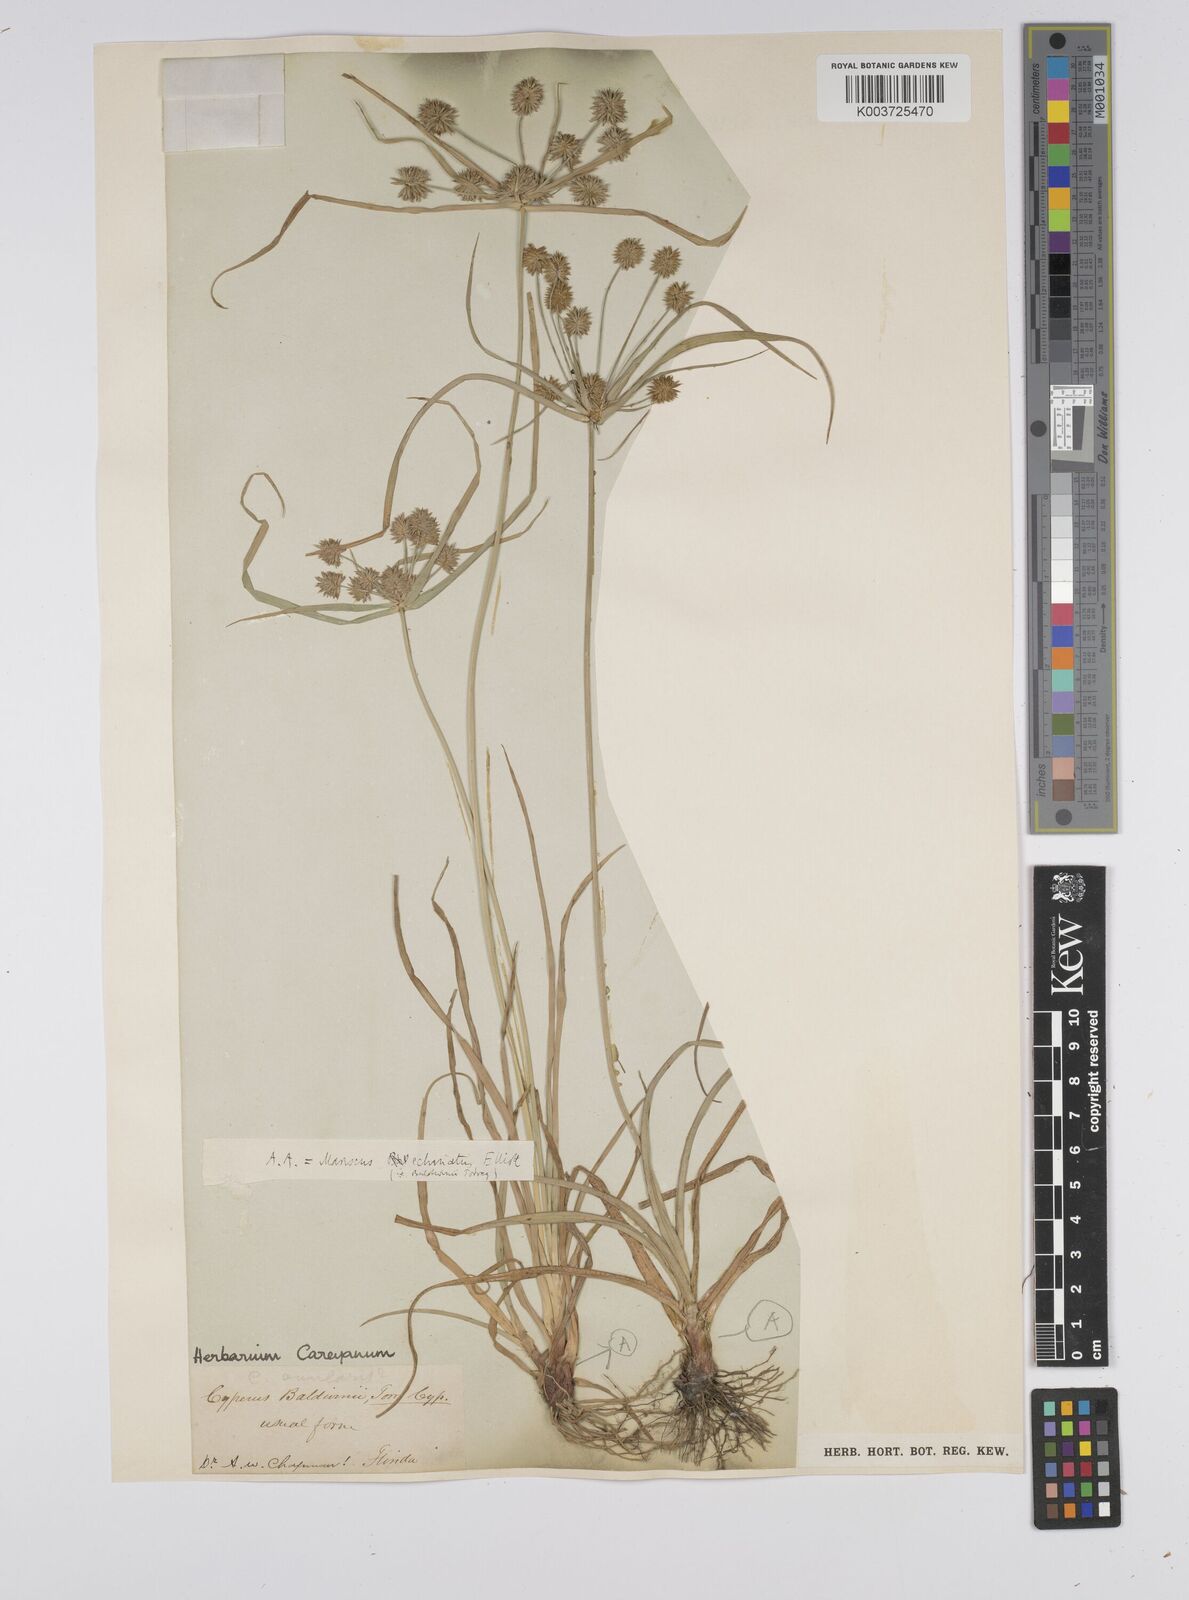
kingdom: Plantae
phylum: Tracheophyta
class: Liliopsida
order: Poales
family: Cyperaceae
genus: Cyperus
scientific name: Cyperus luzulae
